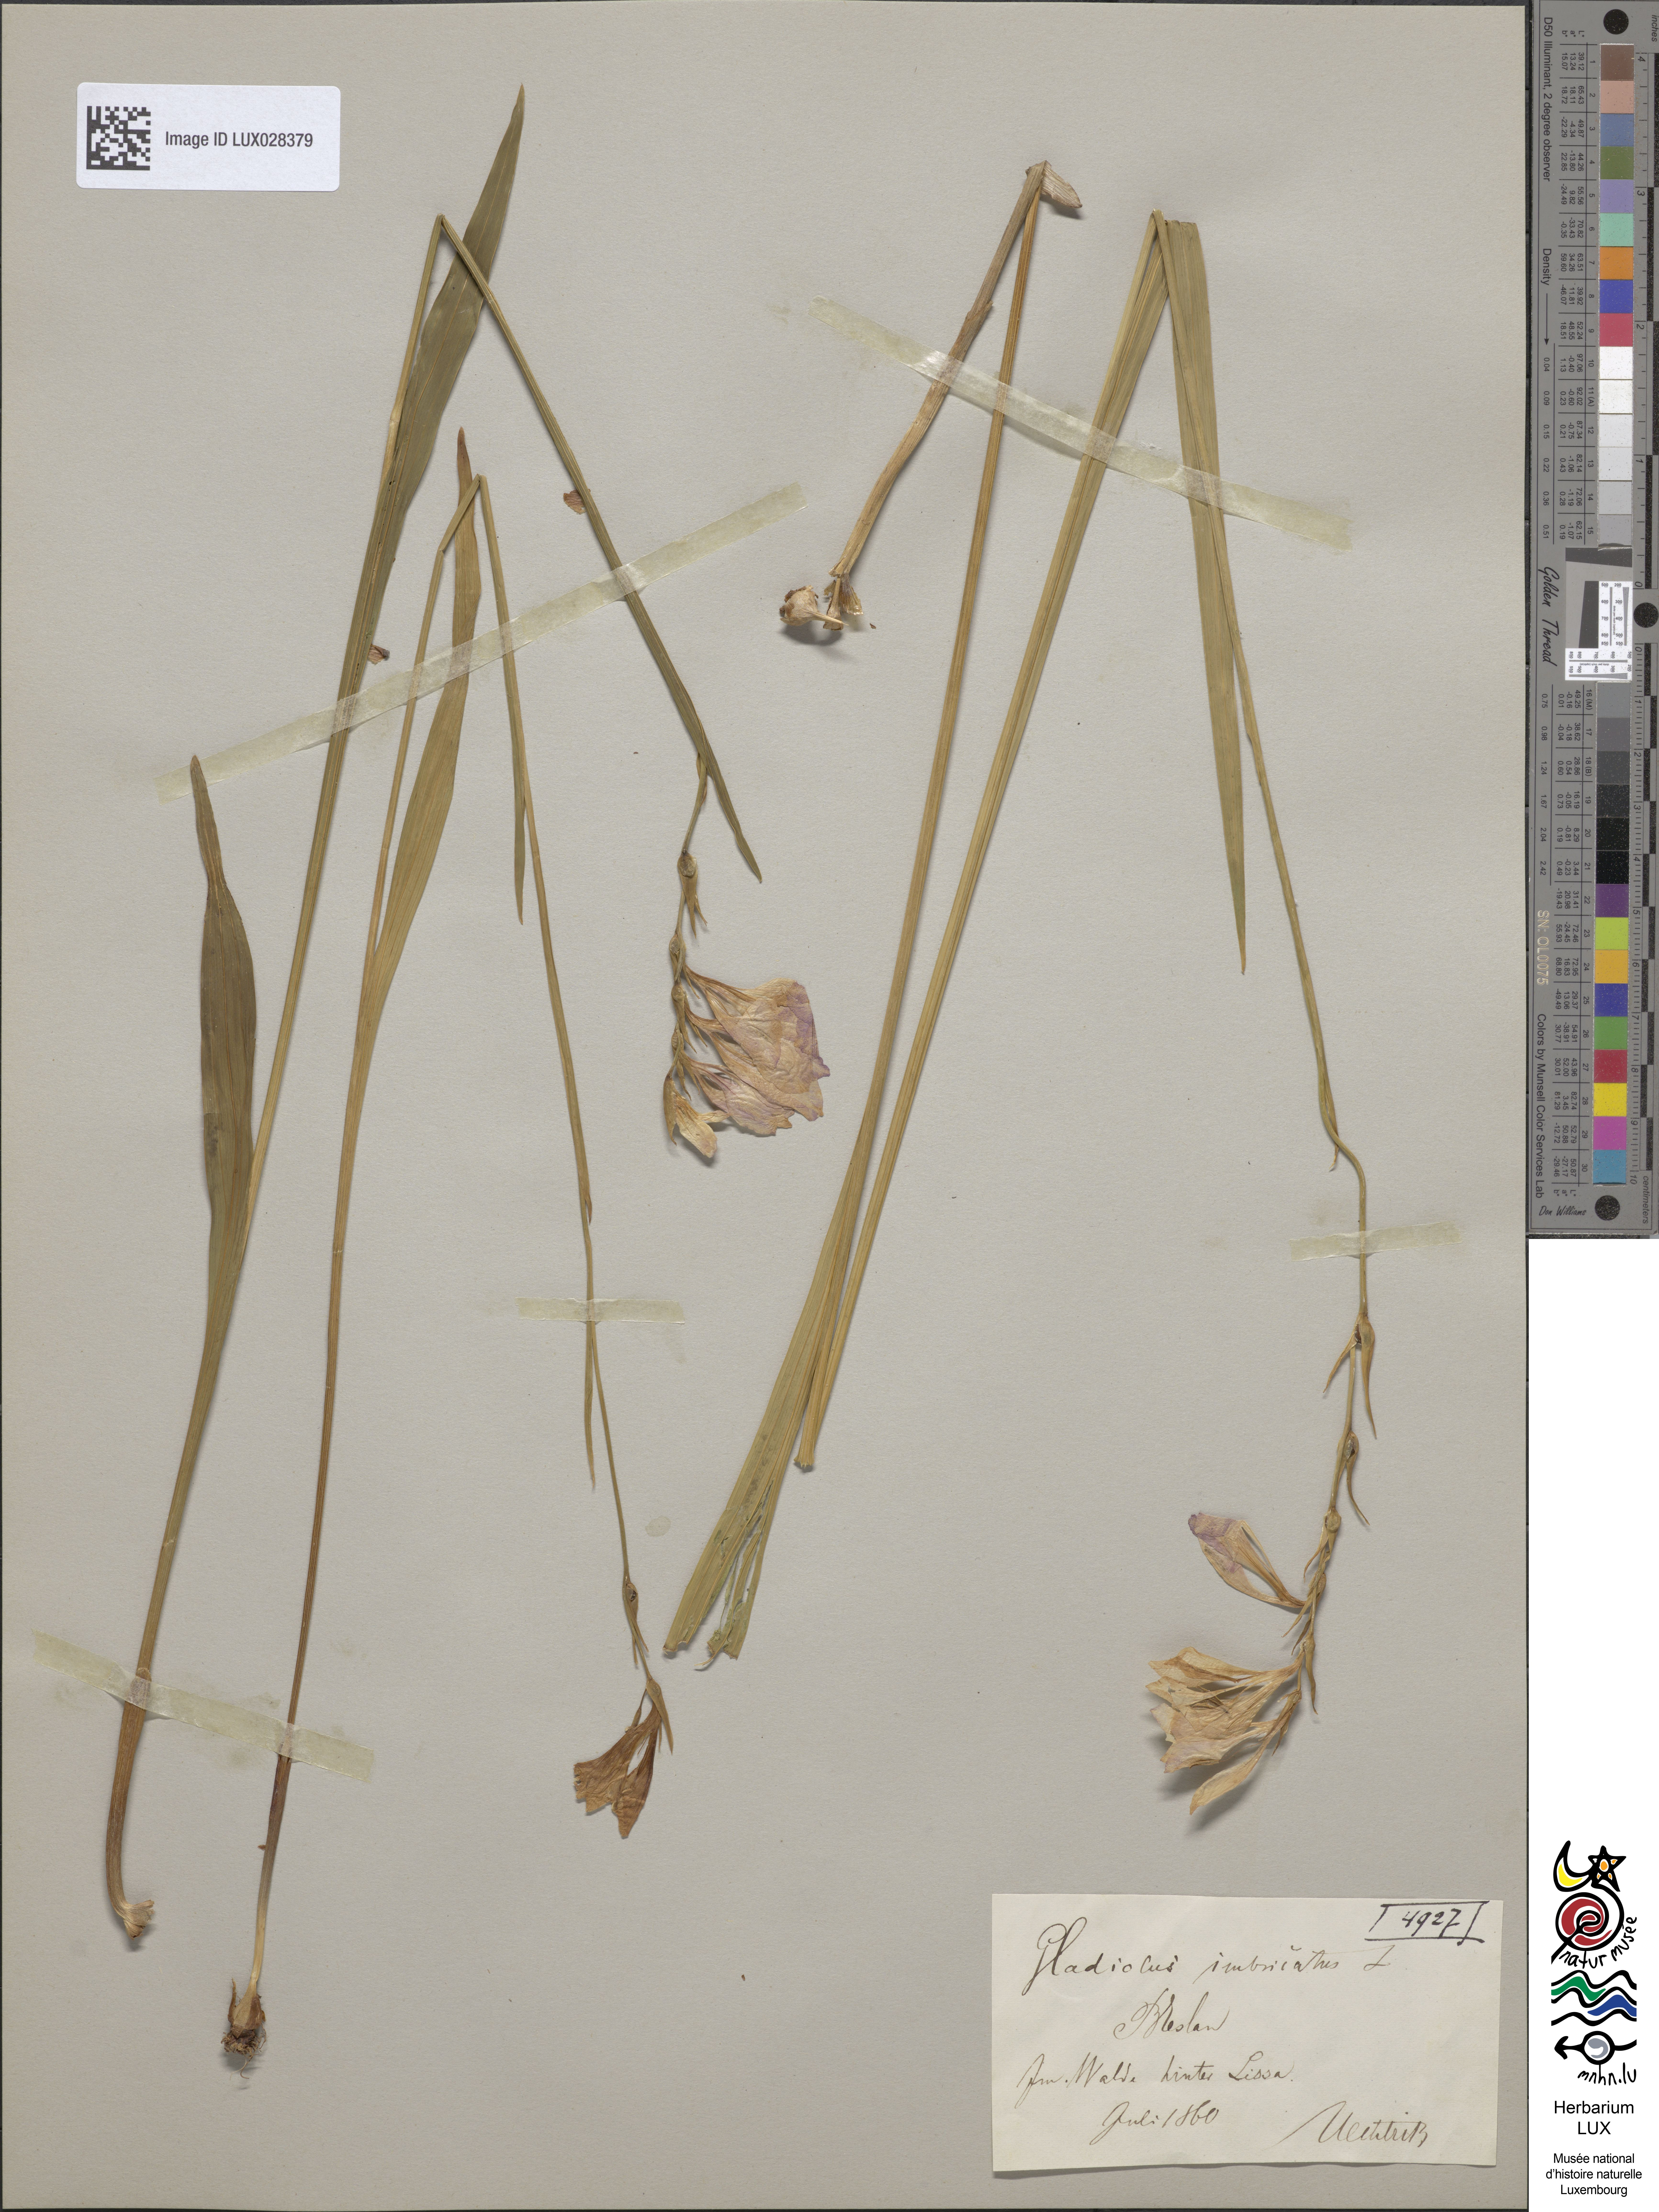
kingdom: Plantae
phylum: Tracheophyta
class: Liliopsida
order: Asparagales
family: Iridaceae
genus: Gladiolus
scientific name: Gladiolus imbricatus
